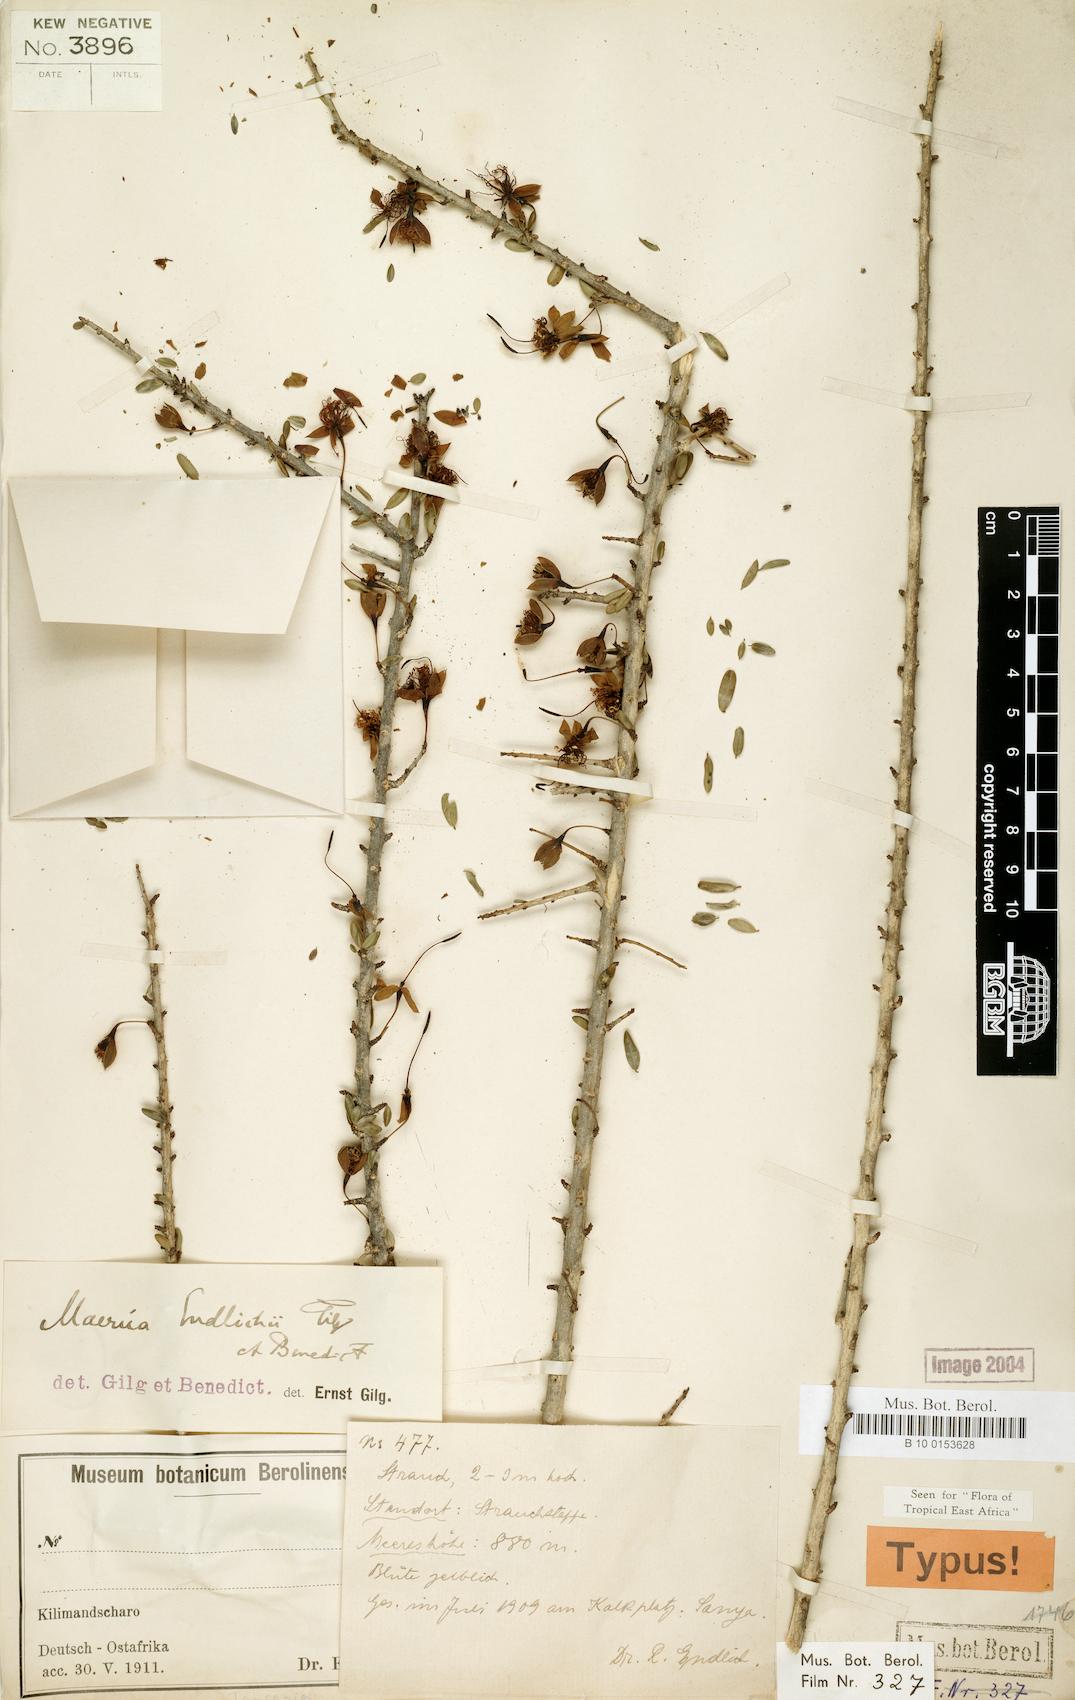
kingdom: Plantae
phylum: Tracheophyta
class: Magnoliopsida
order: Brassicales
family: Capparaceae
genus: Maerua
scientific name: Maerua endlichii
